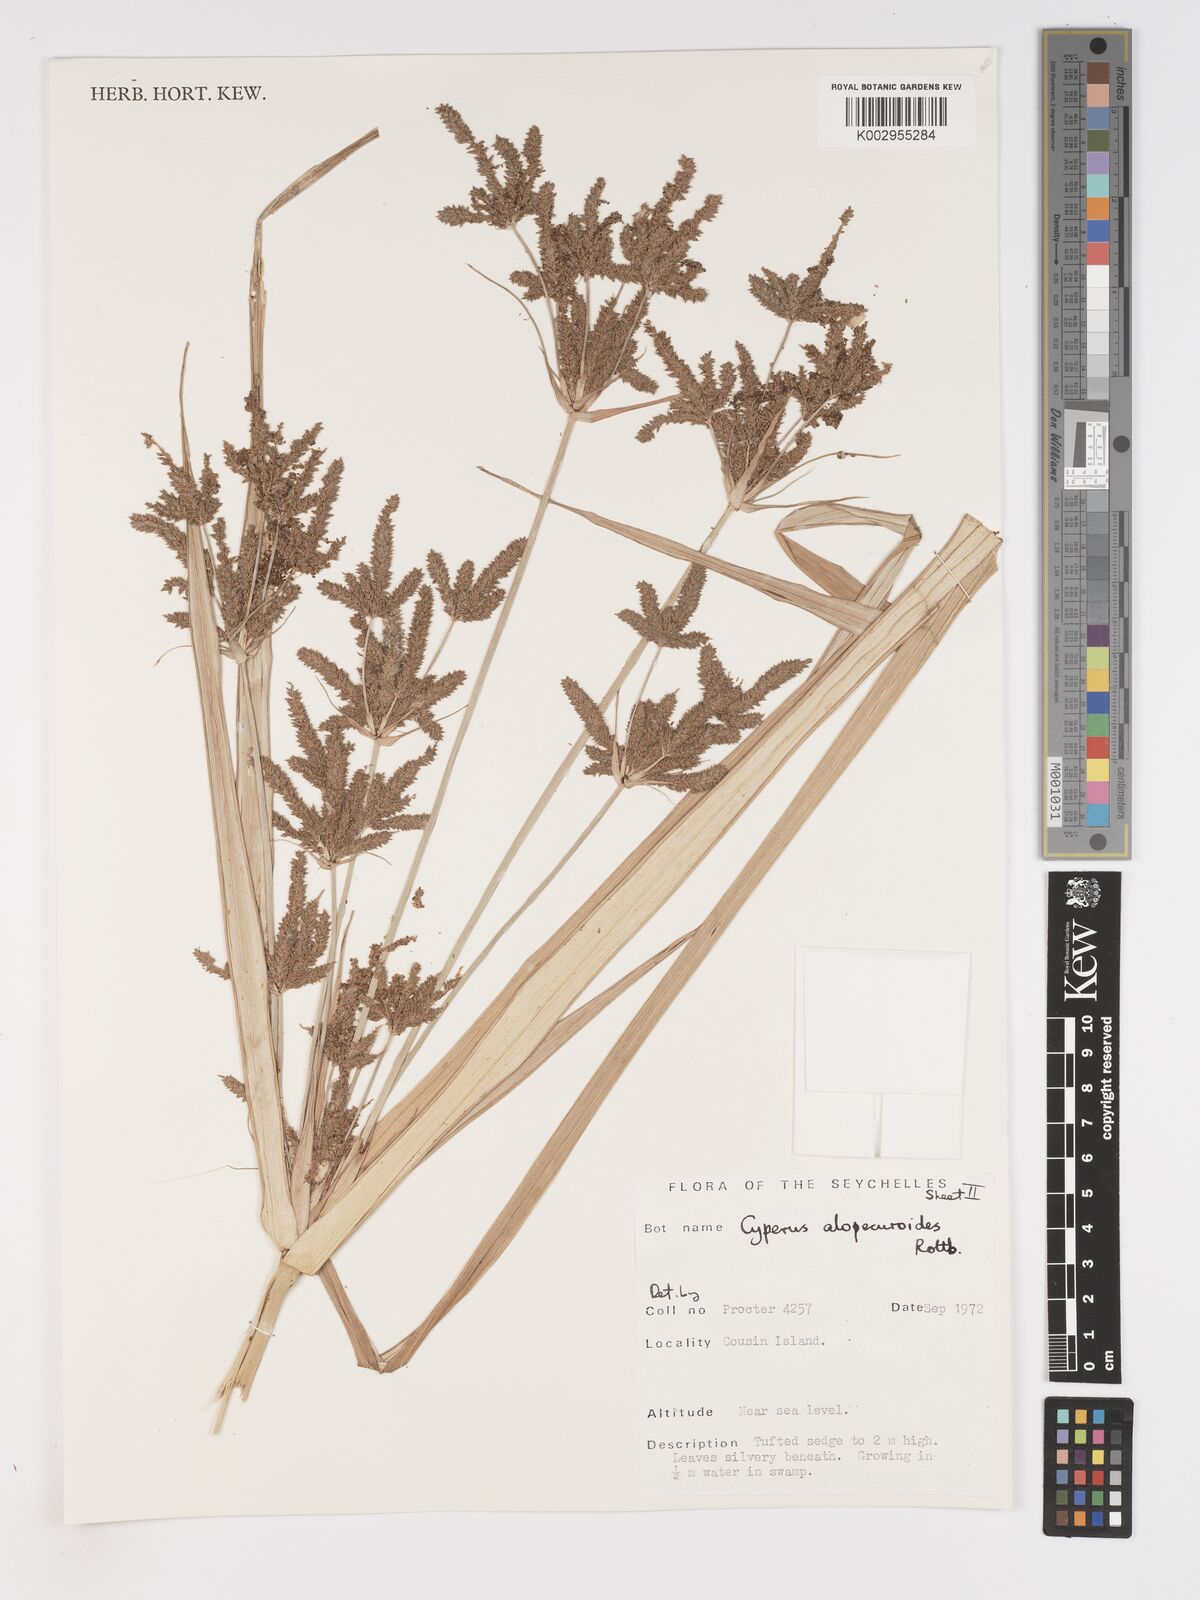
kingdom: Plantae
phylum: Tracheophyta
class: Liliopsida
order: Poales
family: Cyperaceae
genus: Cyperus
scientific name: Cyperus alopecuroides
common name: Foxtail flatsedge
